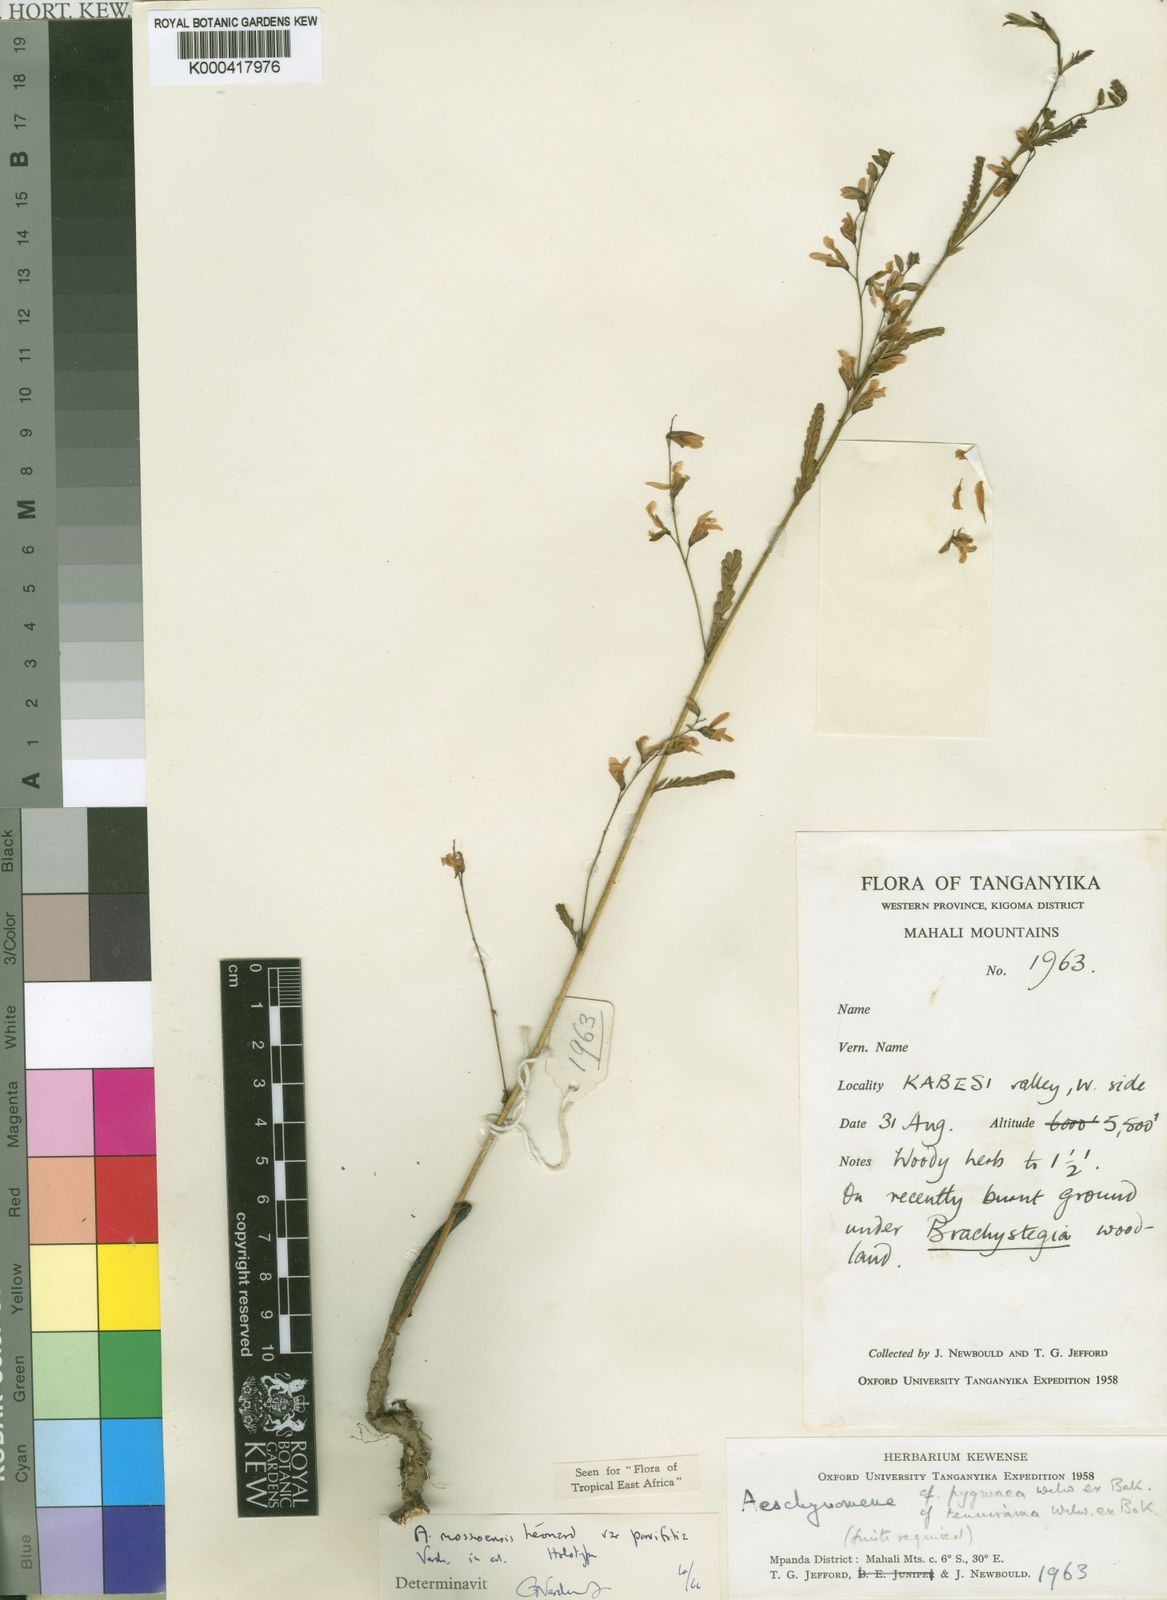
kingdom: Plantae
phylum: Tracheophyta
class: Magnoliopsida
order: Fabales
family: Fabaceae
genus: Aeschynomene
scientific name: Aeschynomene mossoensis
